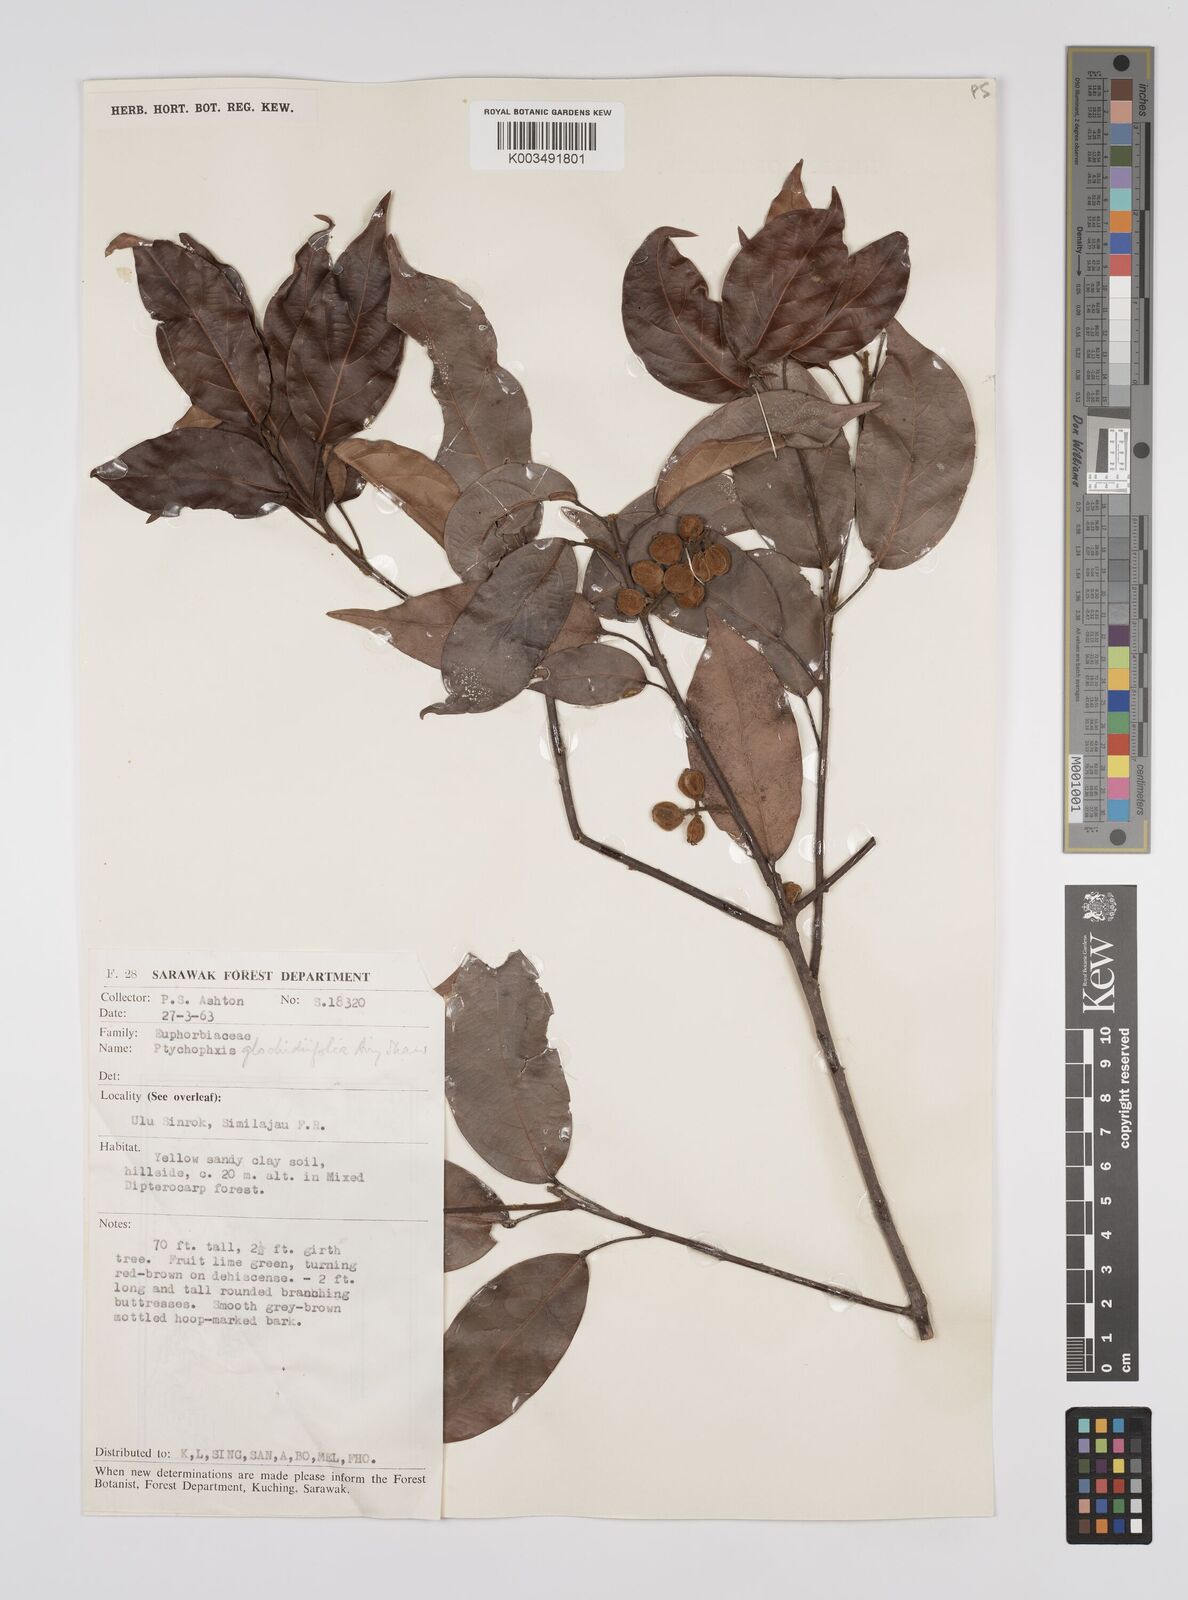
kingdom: Plantae
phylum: Tracheophyta
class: Magnoliopsida
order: Malpighiales
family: Euphorbiaceae
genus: Ptychopyxis
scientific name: Ptychopyxis glochidiifolia
